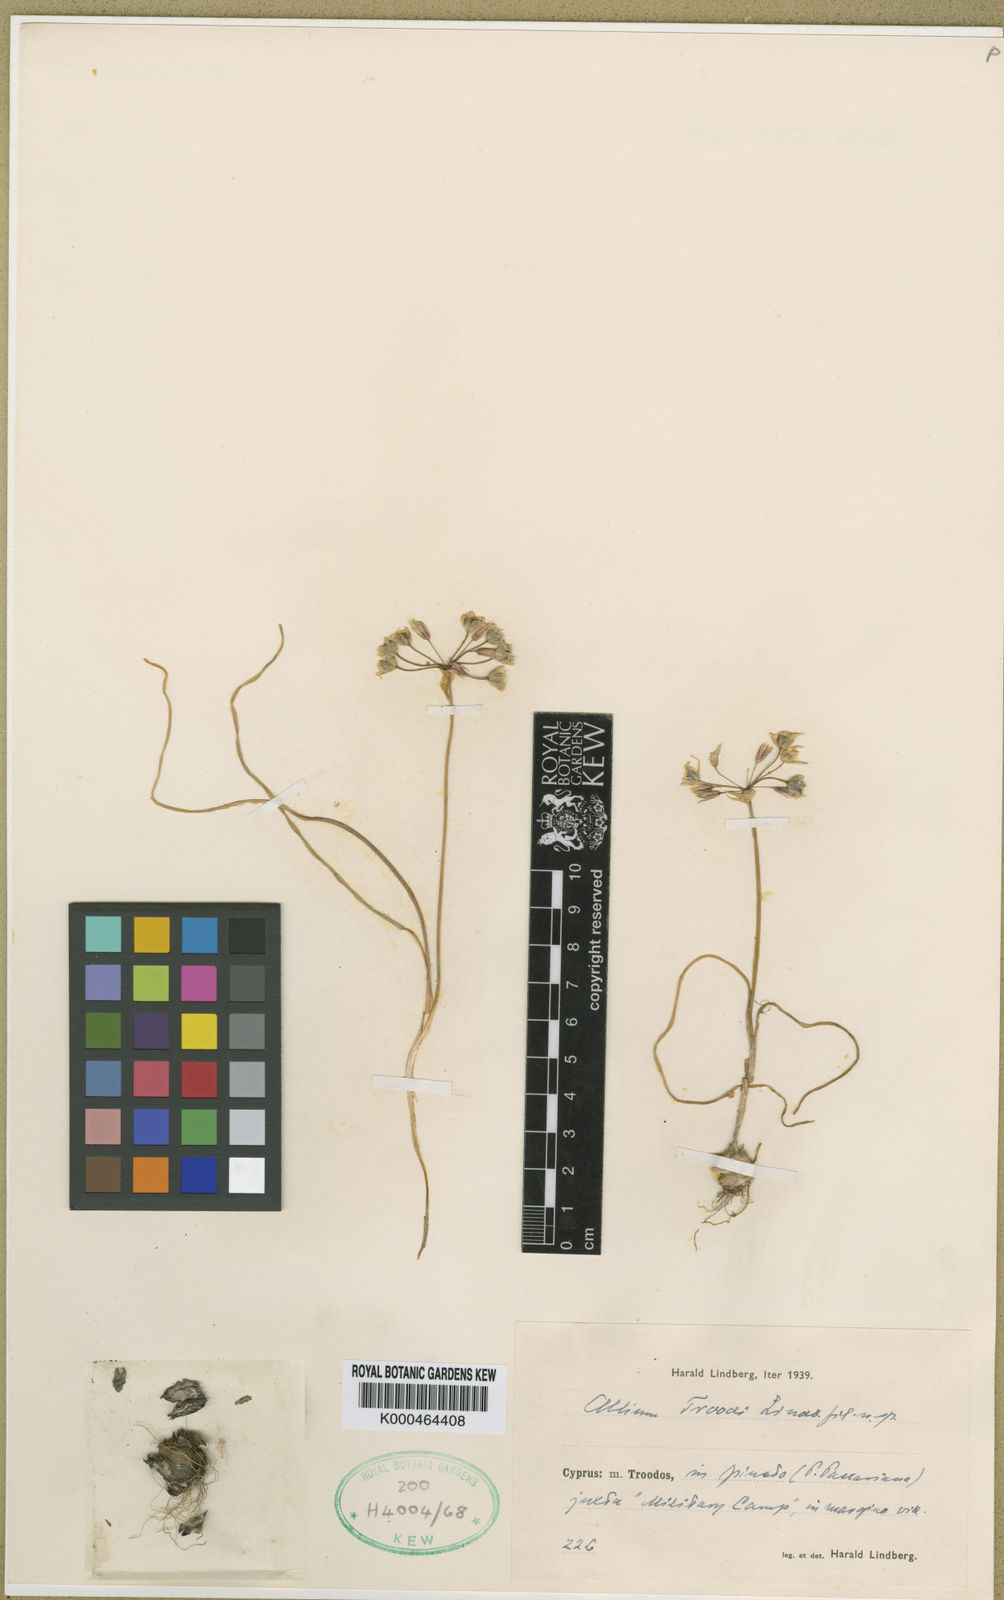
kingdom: Plantae
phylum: Tracheophyta
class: Liliopsida
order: Asparagales
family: Amaryllidaceae
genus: Allium
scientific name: Allium cassium
